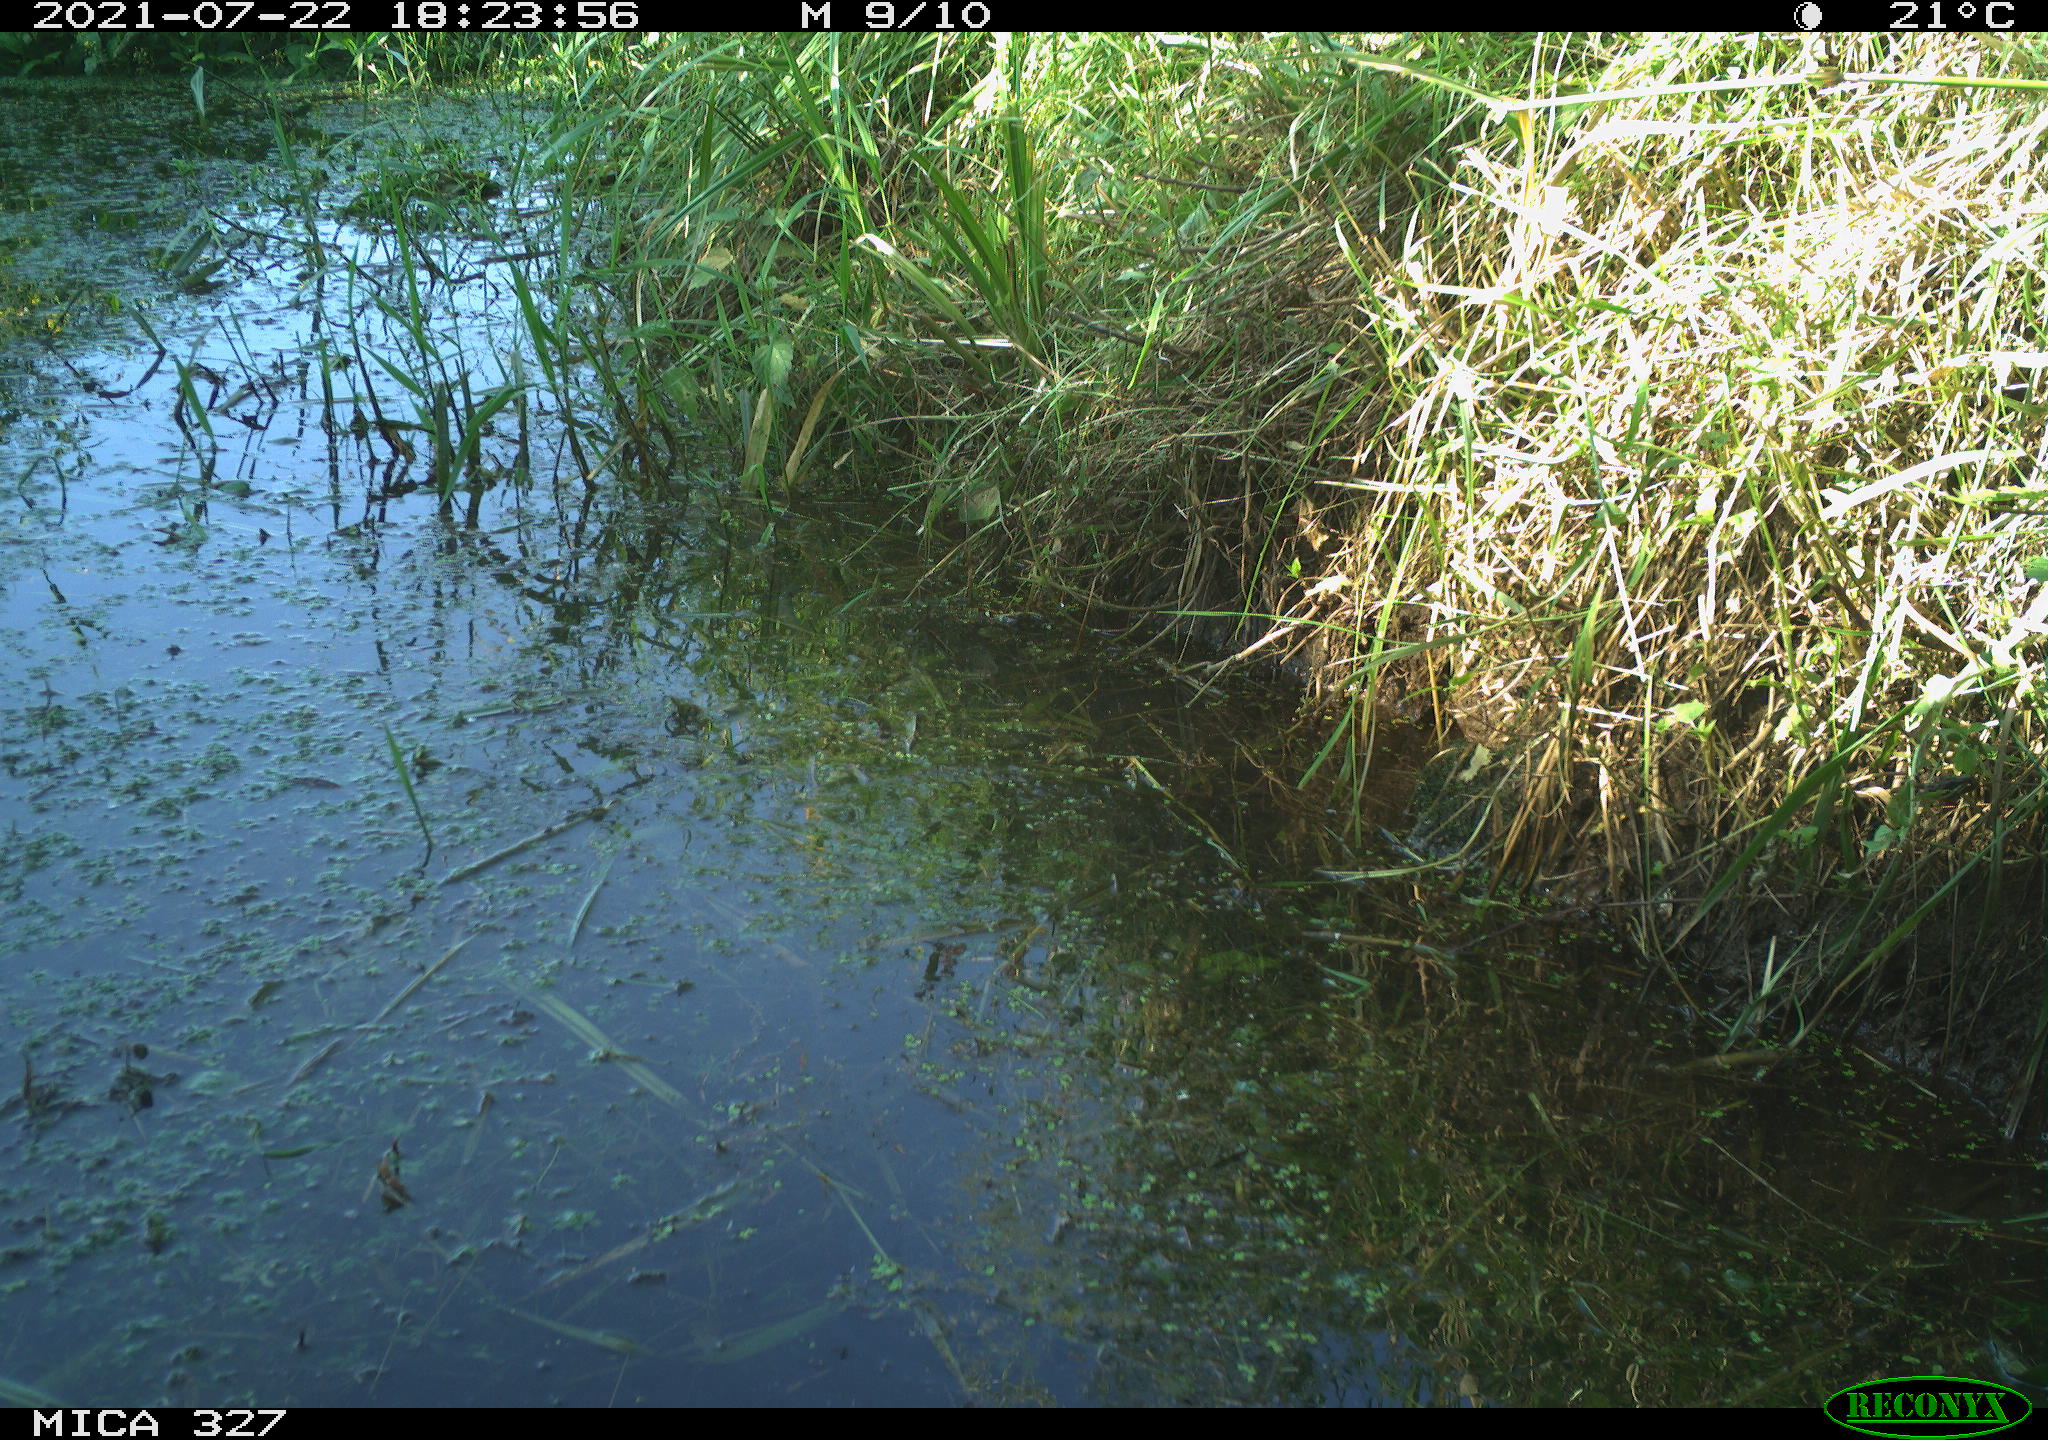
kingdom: Animalia
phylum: Chordata
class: Aves
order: Gruiformes
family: Rallidae
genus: Gallinula
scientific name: Gallinula chloropus
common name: Common moorhen
